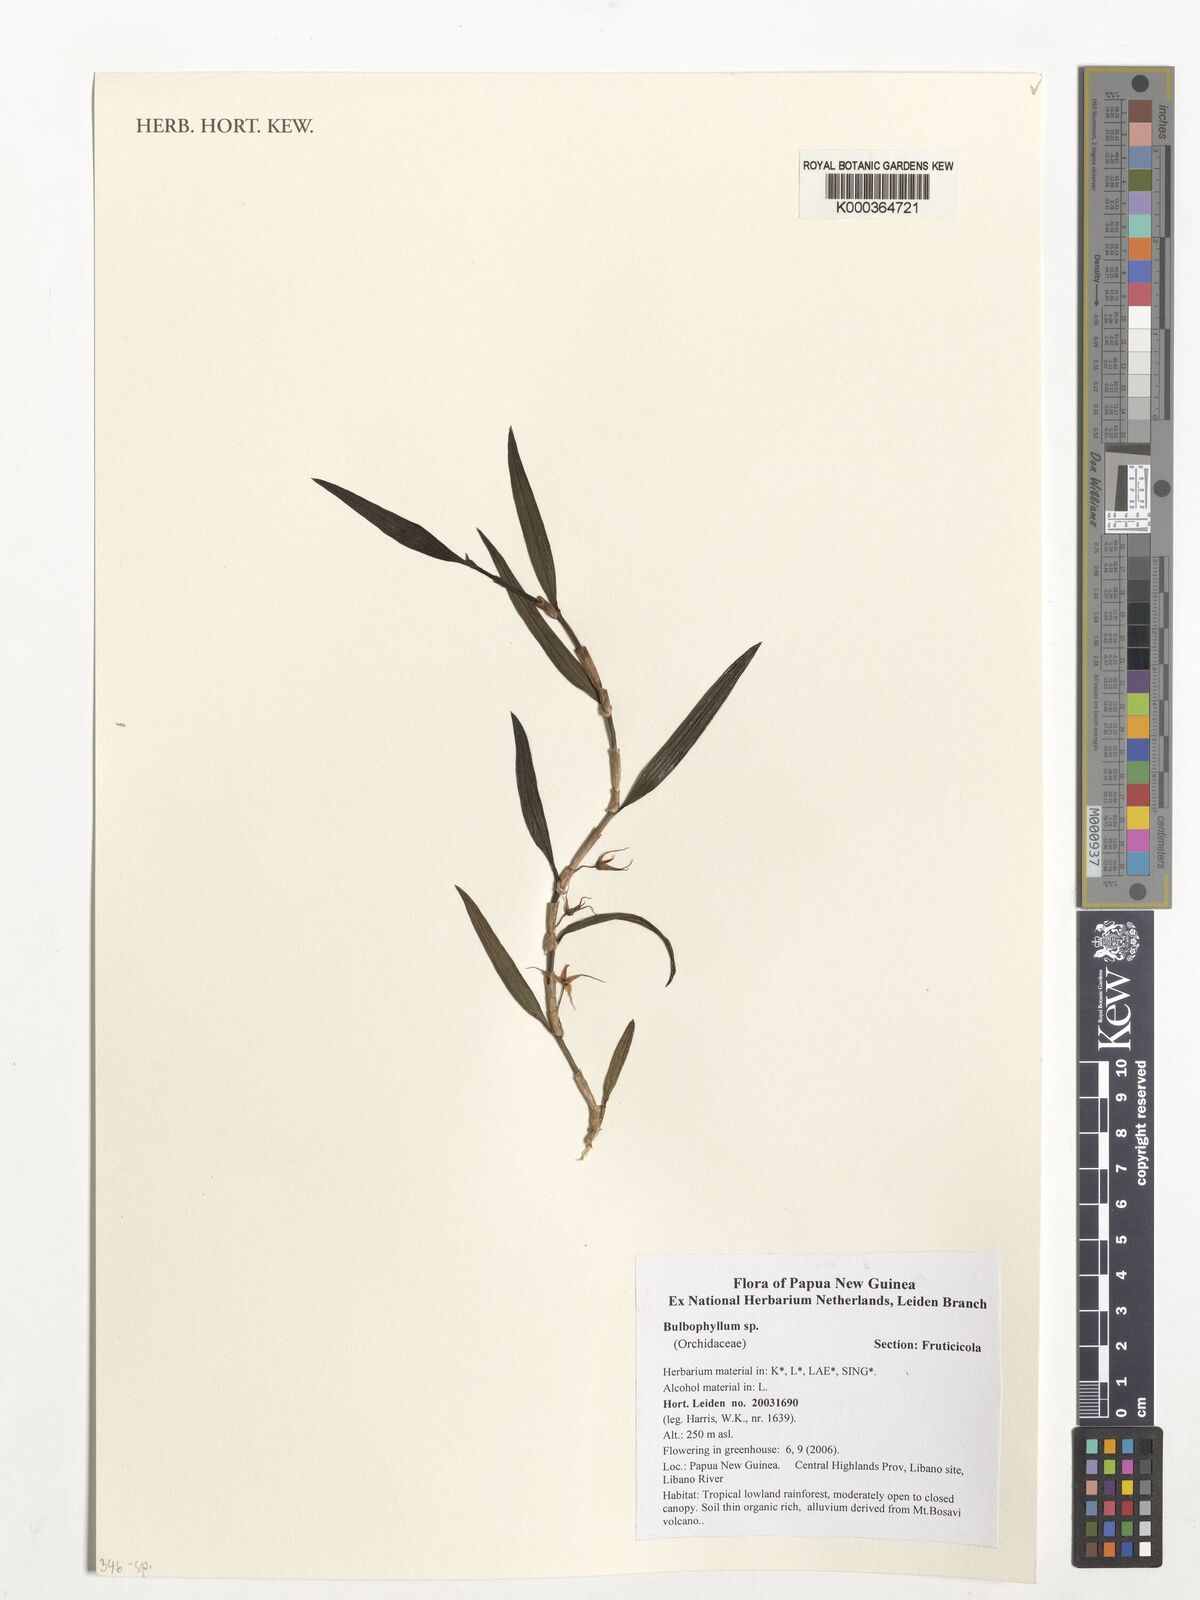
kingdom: Plantae
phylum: Tracheophyta
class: Liliopsida
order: Asparagales
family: Orchidaceae
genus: Mycaranthes
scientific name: Mycaranthes obliqua
